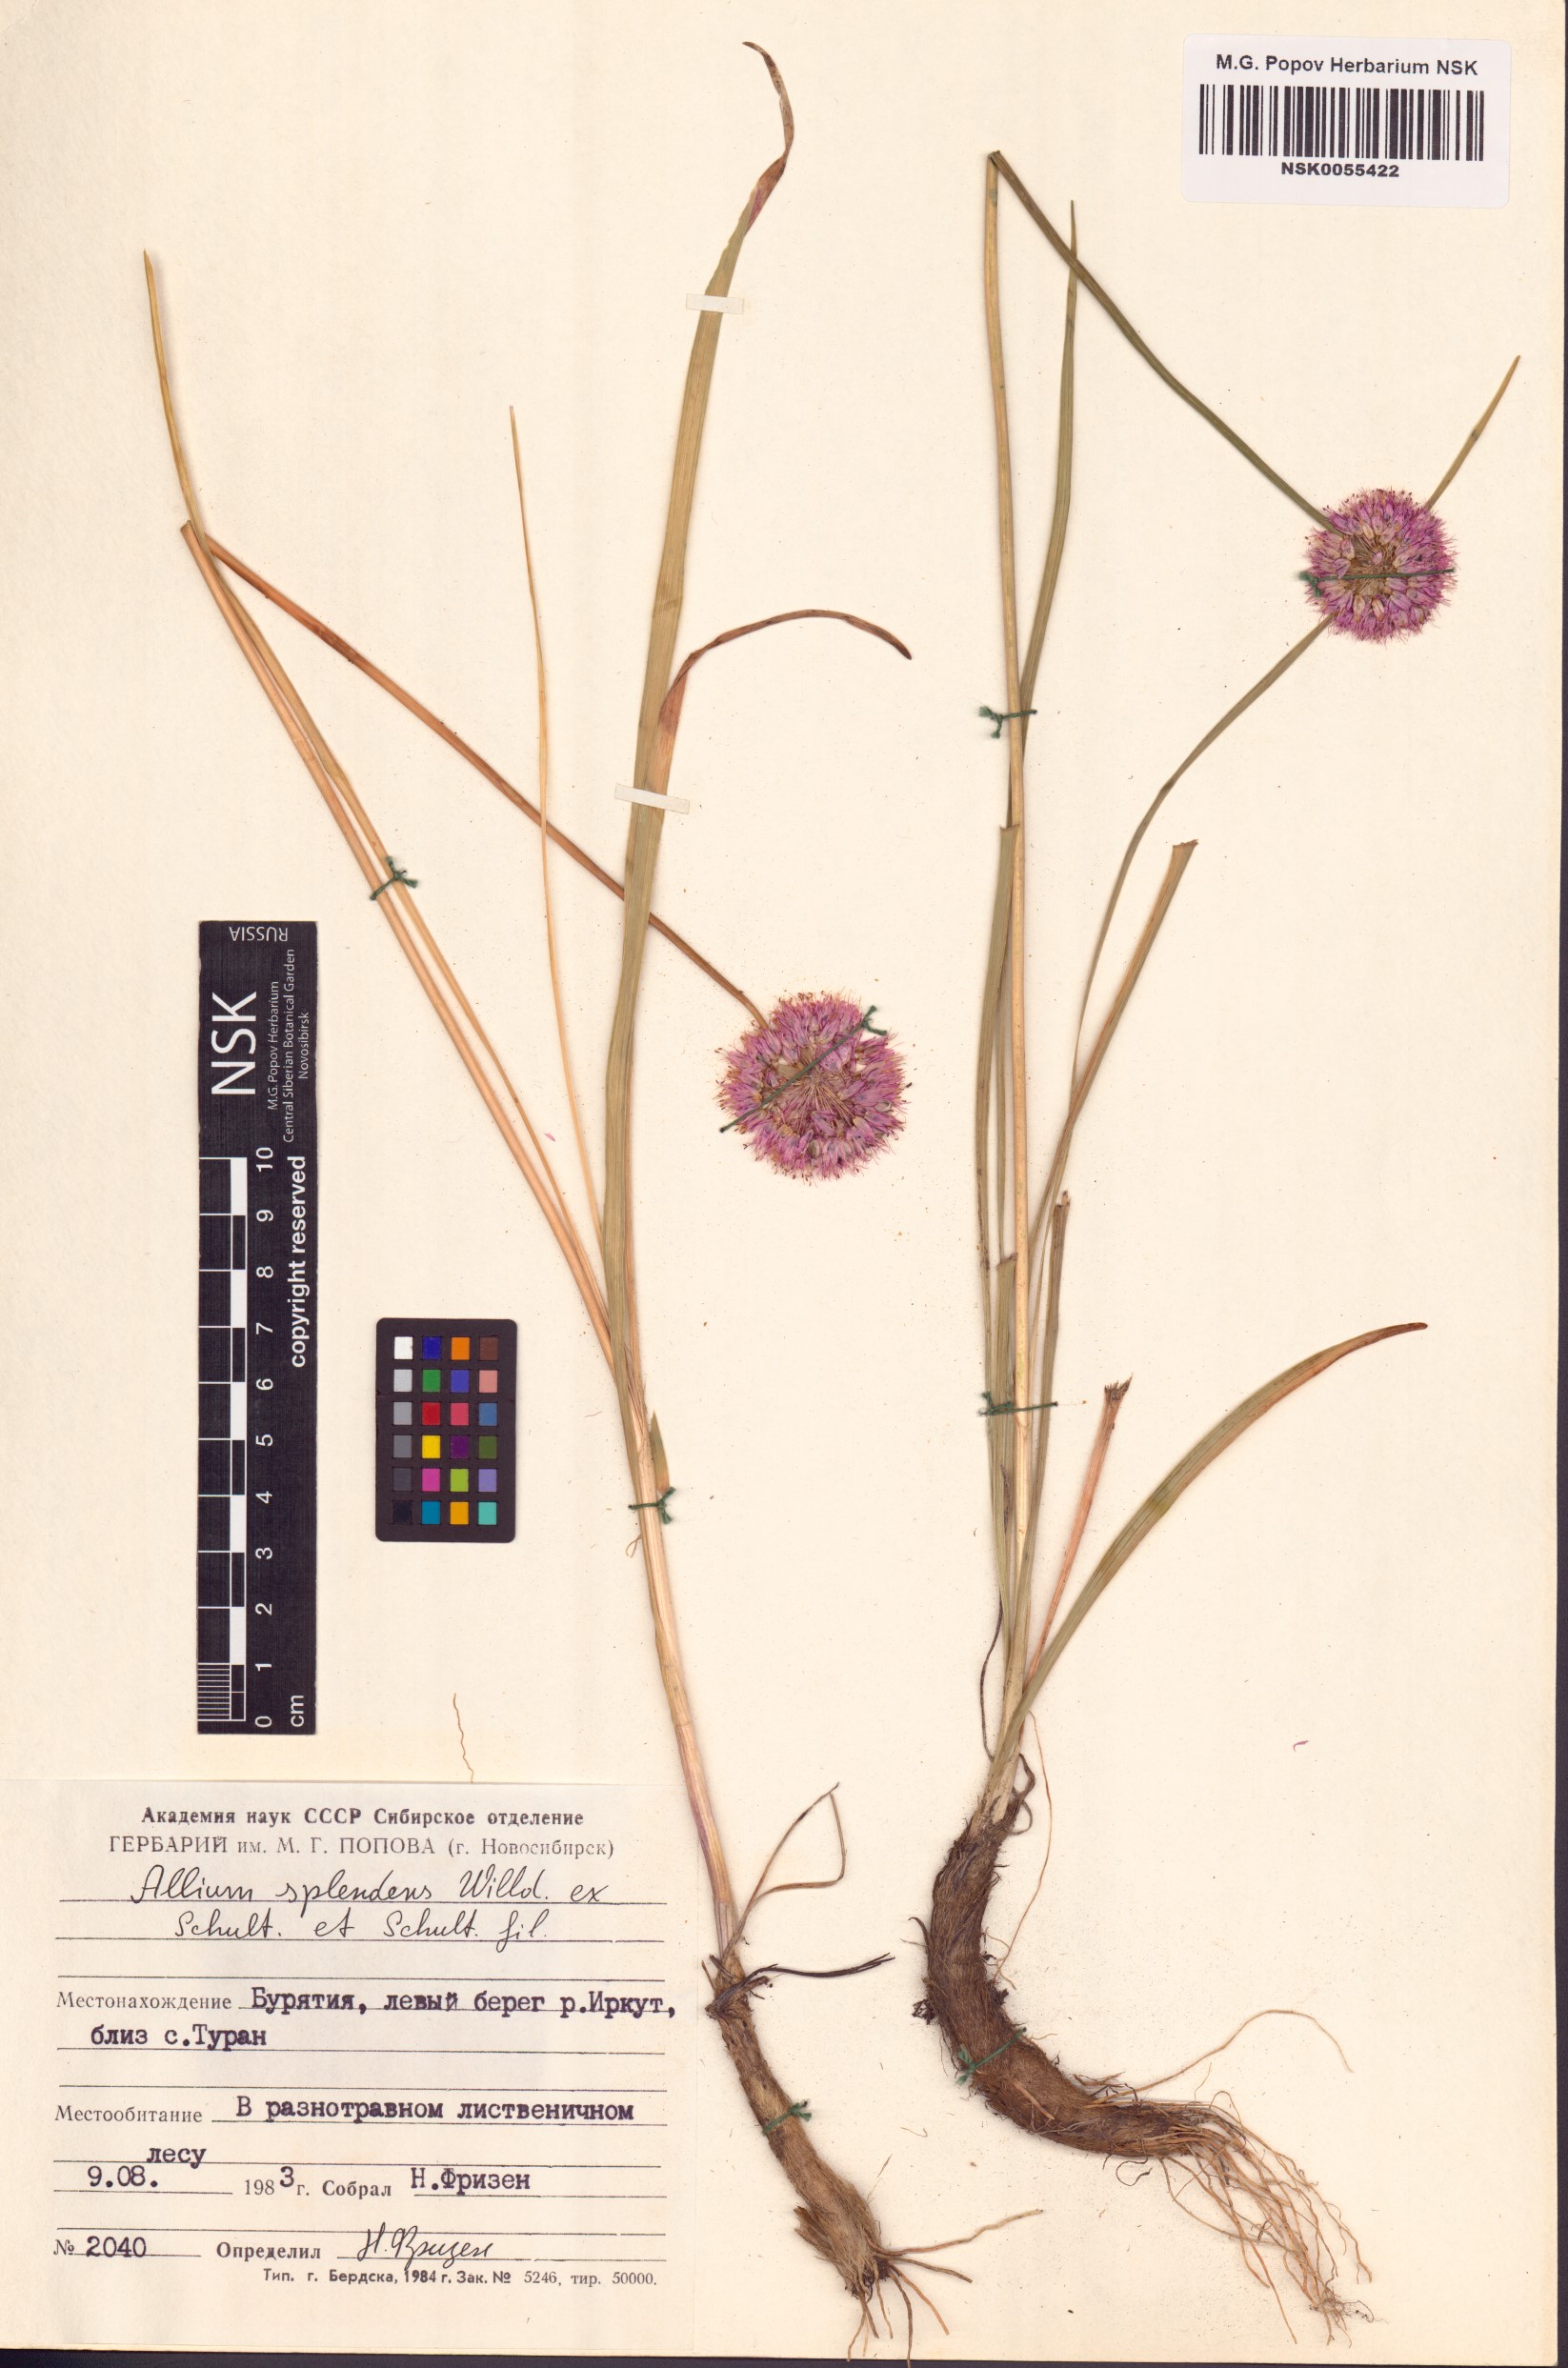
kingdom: Plantae
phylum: Tracheophyta
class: Liliopsida
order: Asparagales
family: Amaryllidaceae
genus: Allium
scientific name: Allium splendens
